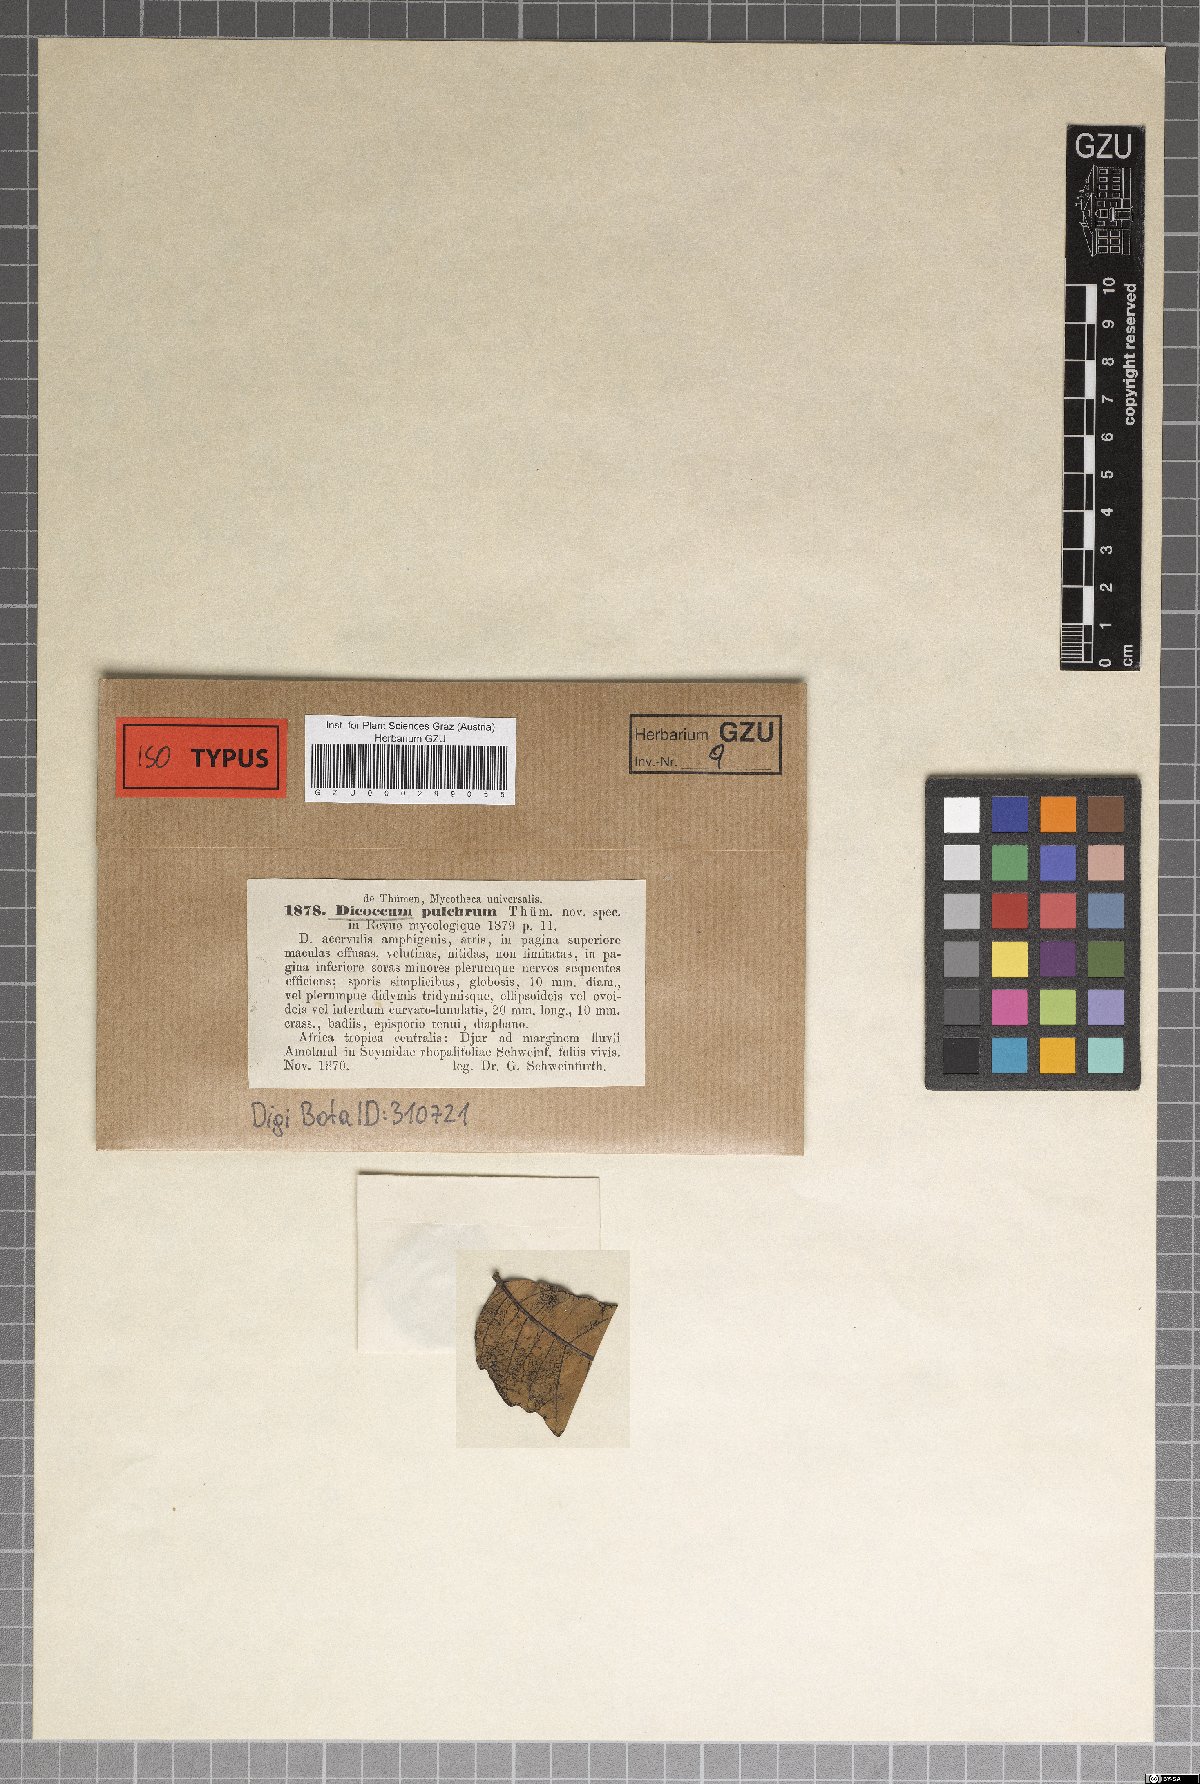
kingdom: Fungi
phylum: Ascomycota
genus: Dicoccum
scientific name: Dicoccum
